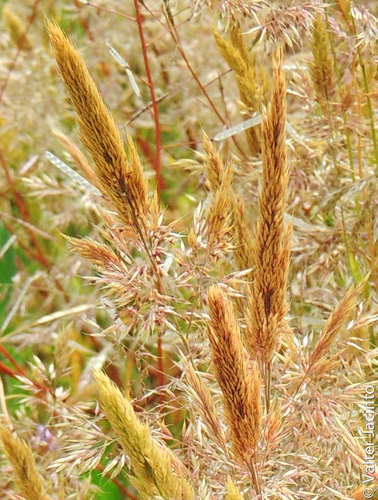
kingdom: Plantae
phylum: Tracheophyta
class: Liliopsida
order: Poales
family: Poaceae
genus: Gastridium
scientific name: Gastridium phleoides
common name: Nit grass
